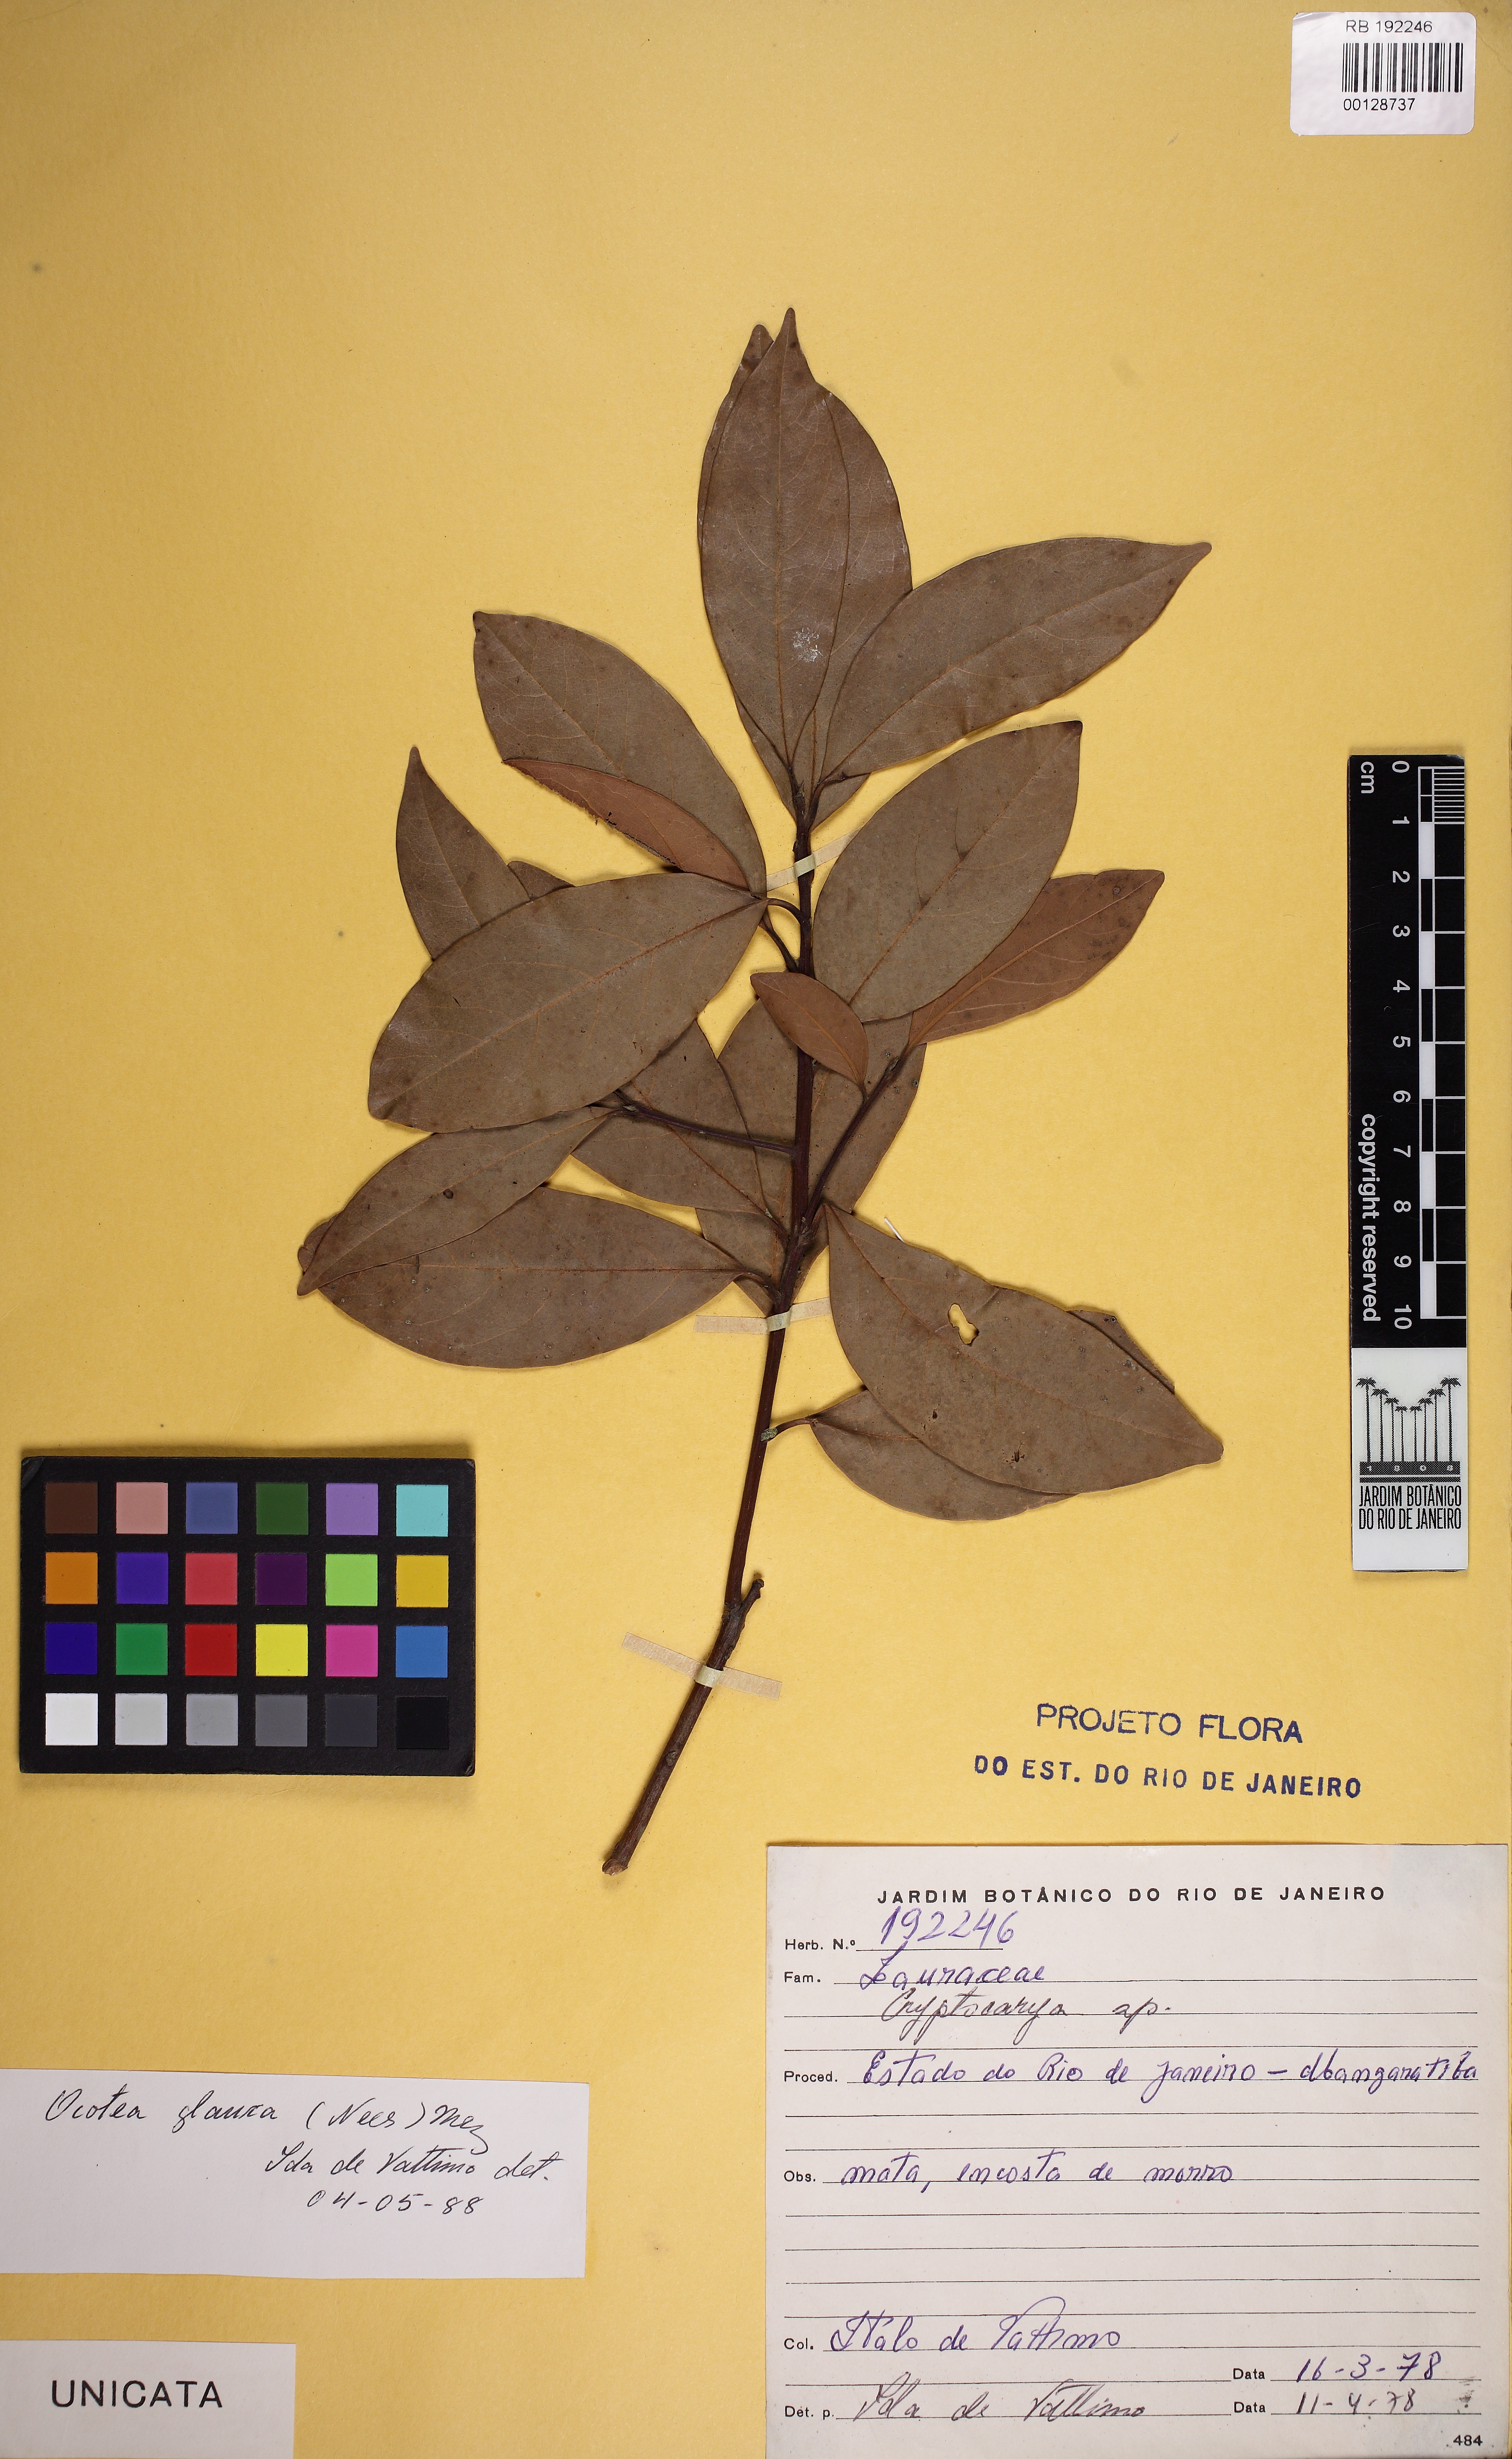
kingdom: Plantae
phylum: Tracheophyta
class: Magnoliopsida
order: Laurales
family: Lauraceae
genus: Mespilodaphne
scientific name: Mespilodaphne glauca
